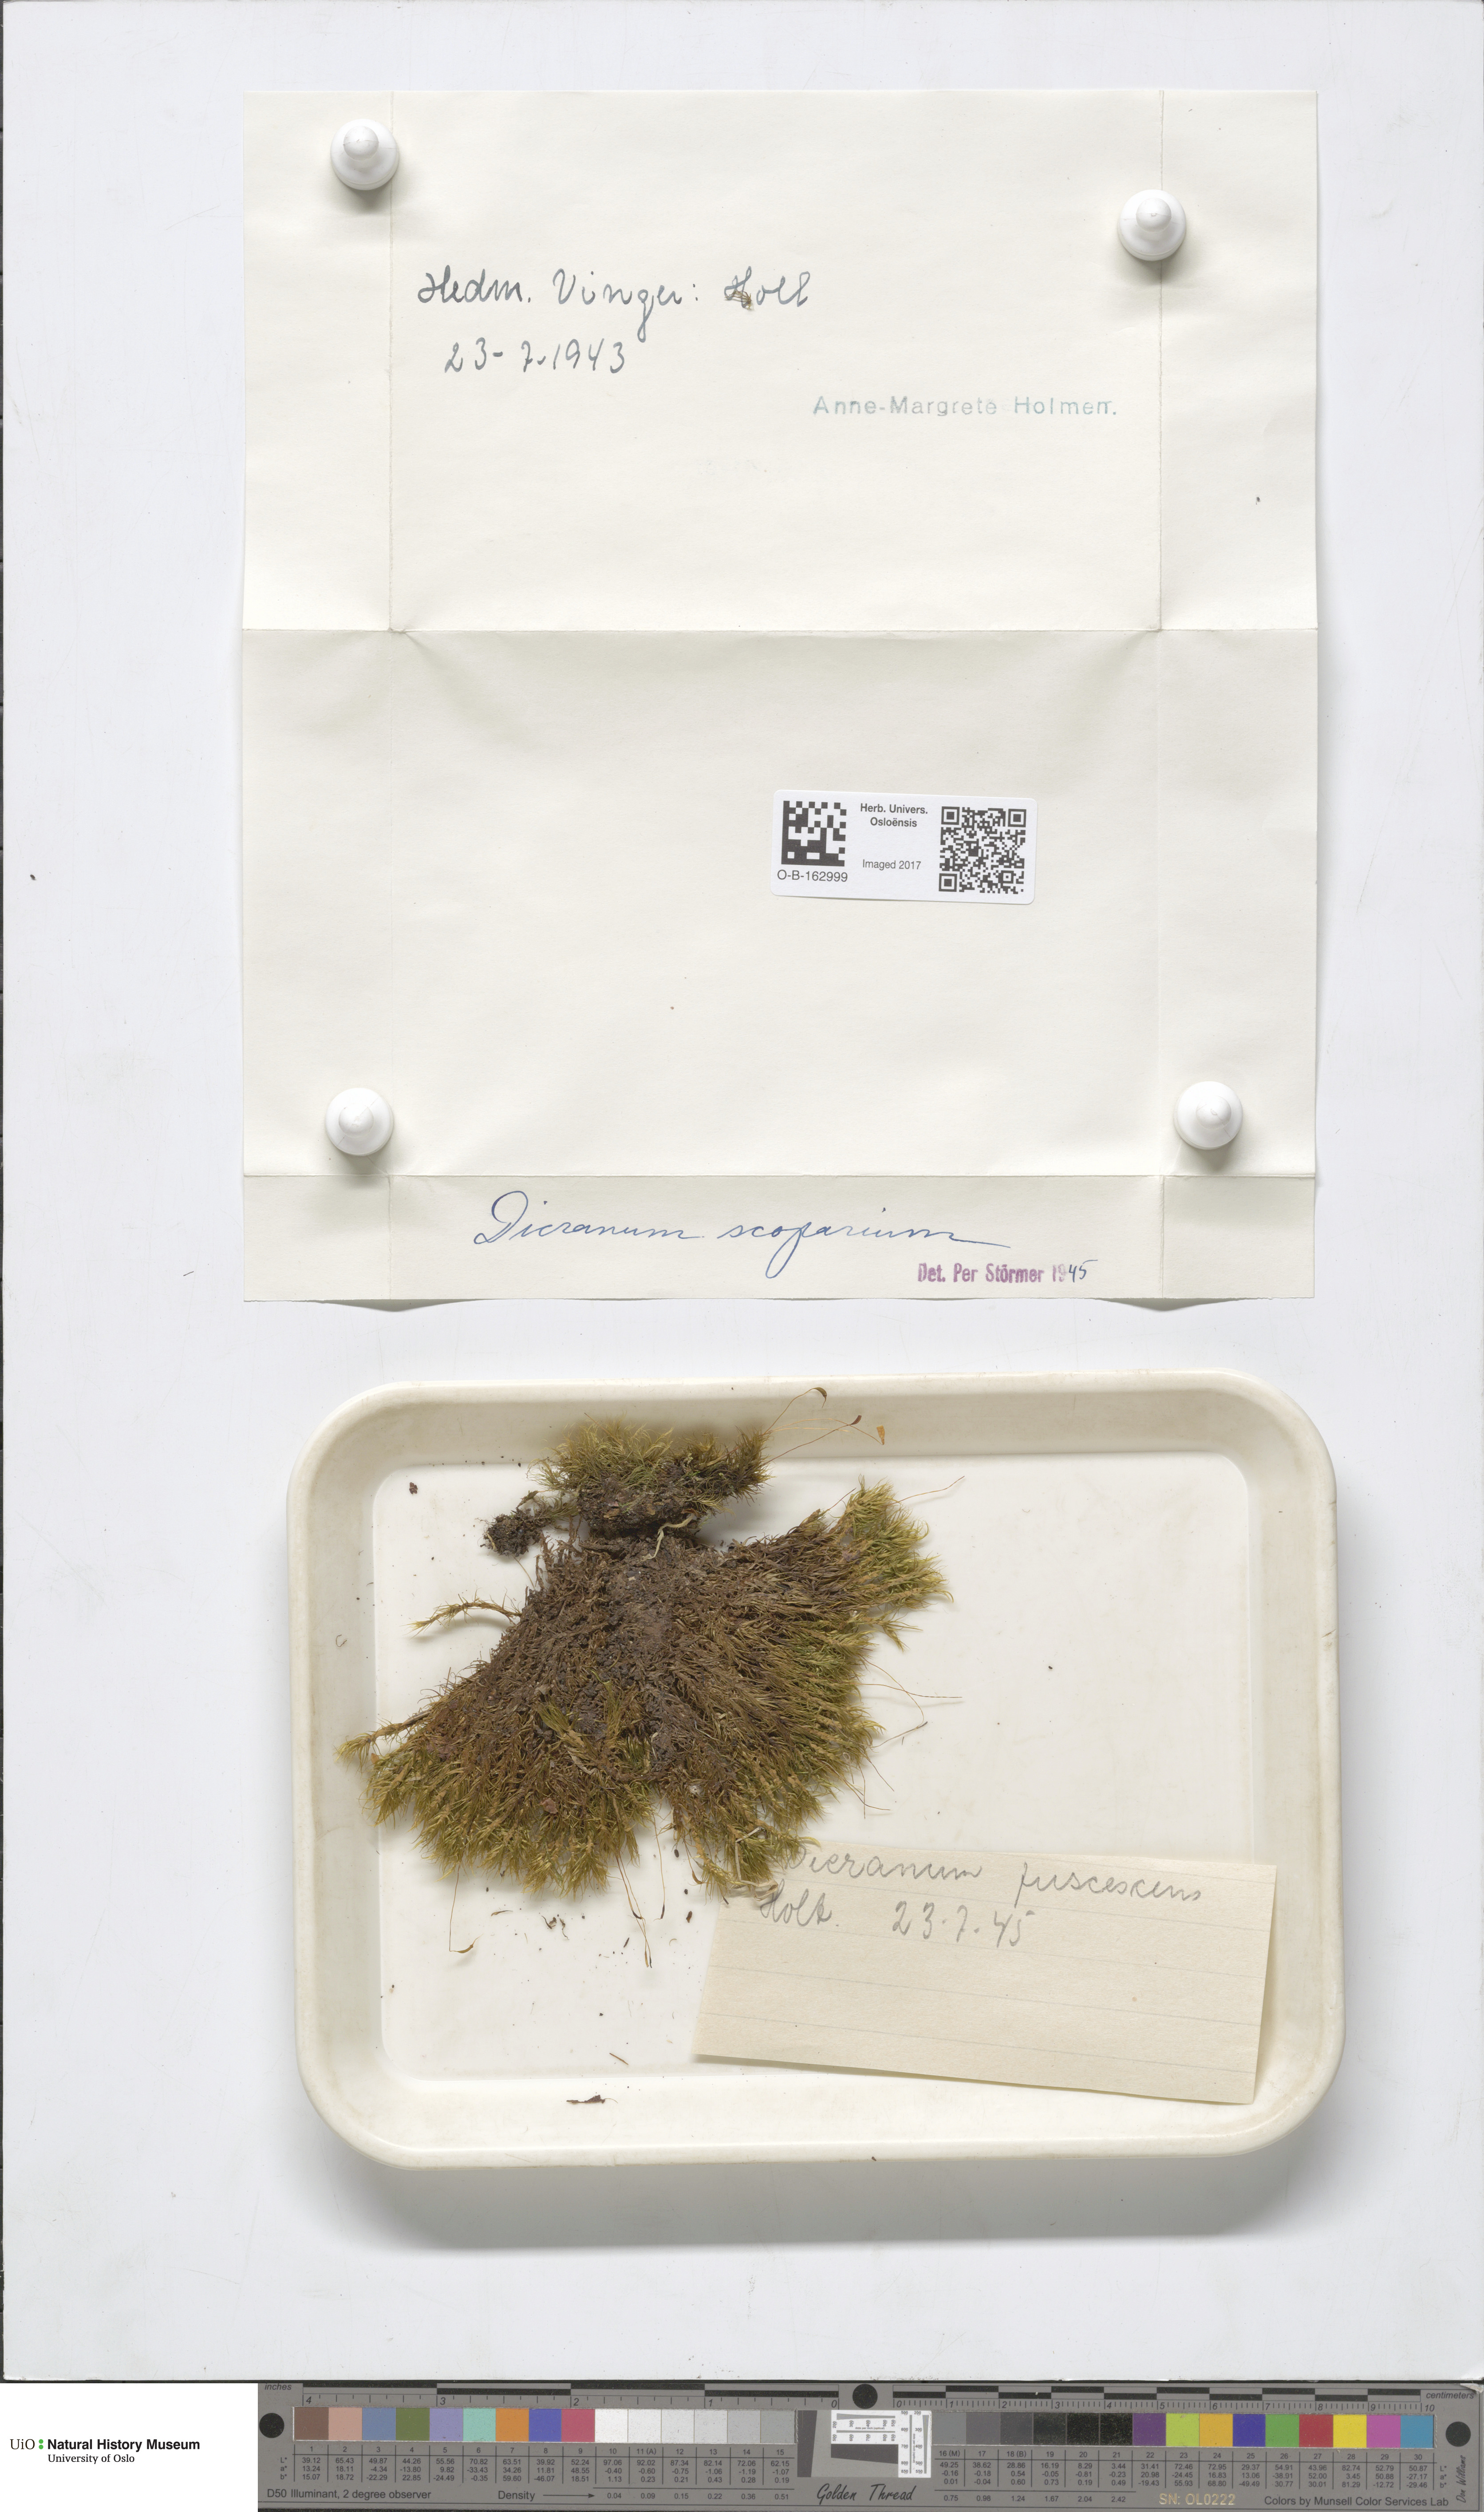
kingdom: Plantae
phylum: Bryophyta
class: Bryopsida
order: Dicranales
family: Dicranaceae
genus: Dicranum
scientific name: Dicranum scoparium
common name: Broom fork-moss
